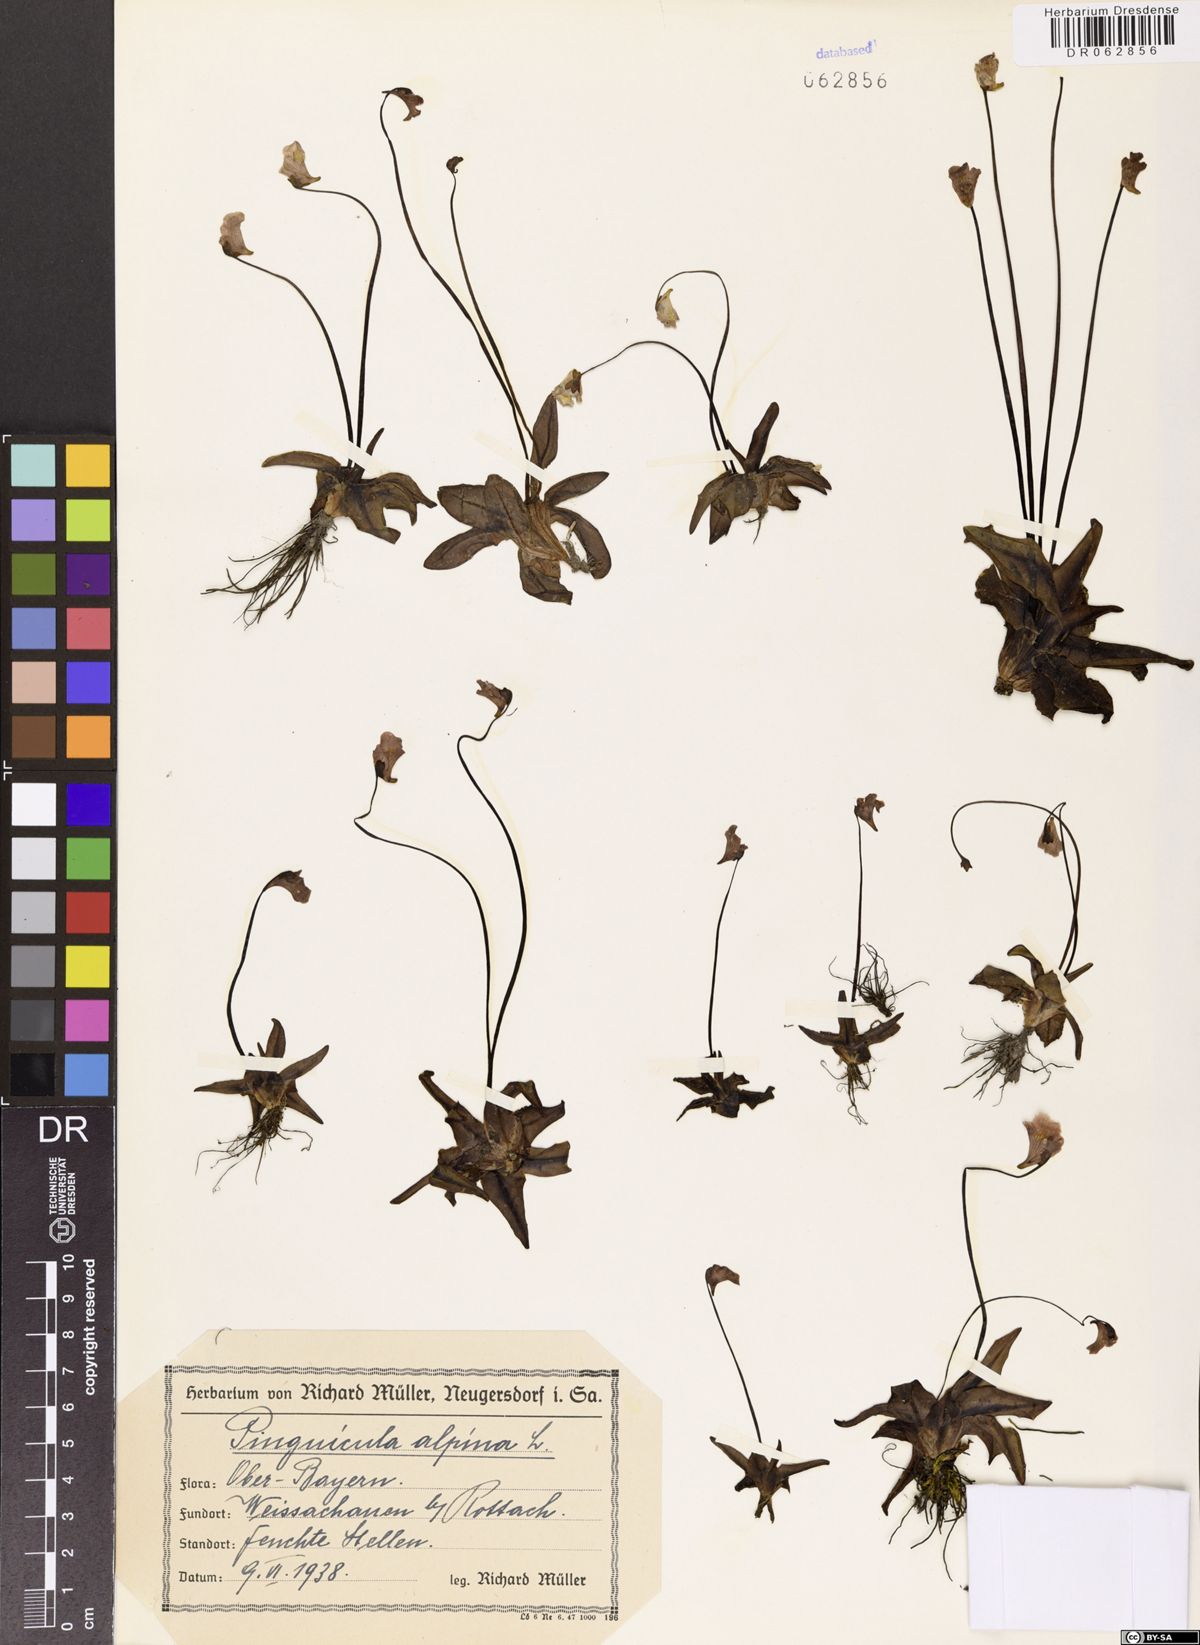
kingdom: Plantae
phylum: Tracheophyta
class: Magnoliopsida
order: Lamiales
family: Lentibulariaceae
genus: Pinguicula
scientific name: Pinguicula alpina
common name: Alpine butterwort
